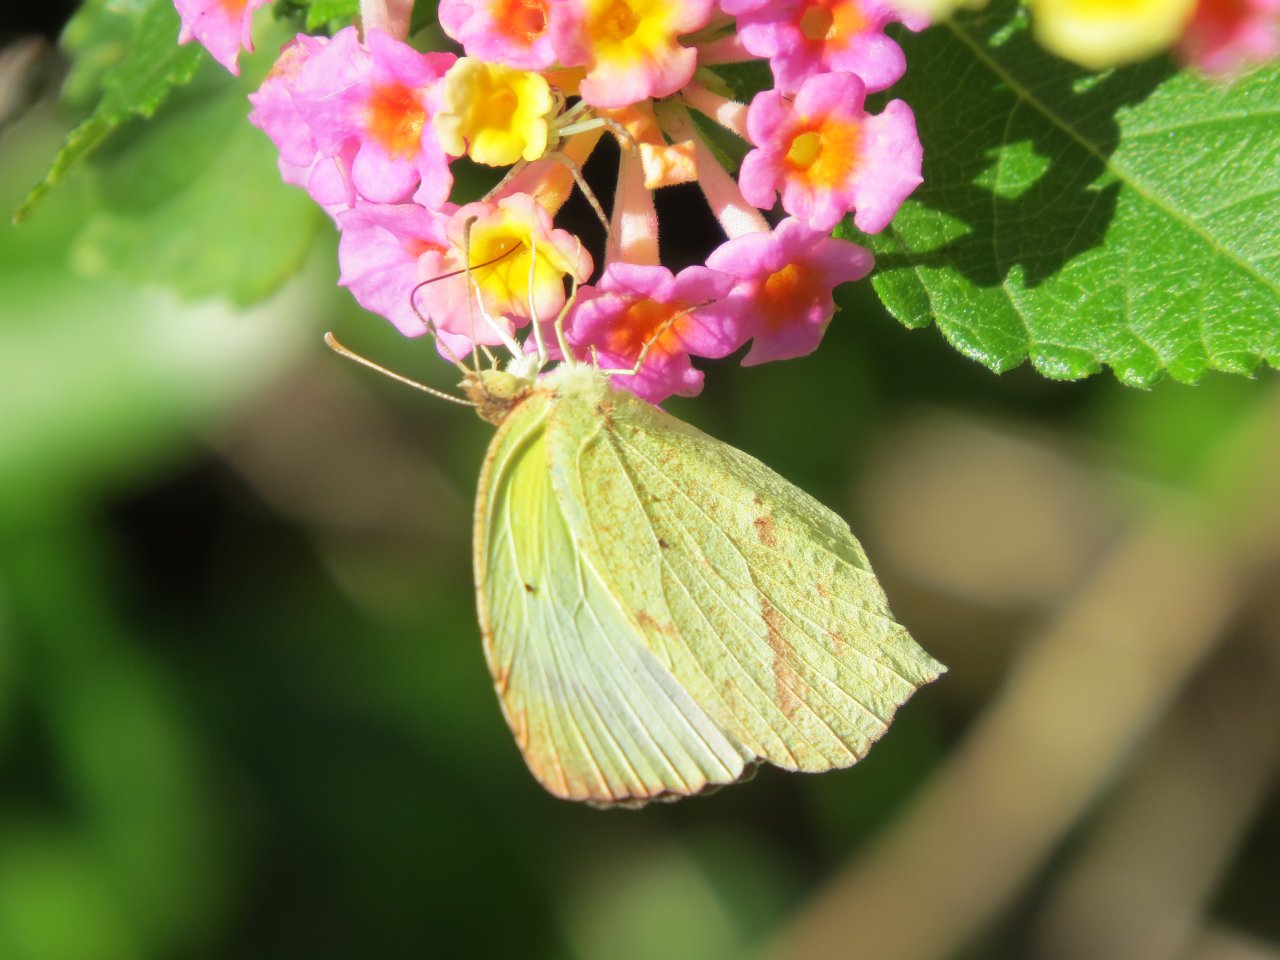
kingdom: Animalia
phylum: Arthropoda
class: Insecta
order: Lepidoptera
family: Pieridae
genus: Eurema
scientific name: Eurema boisduvaliana
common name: Boisduval's Yellow
